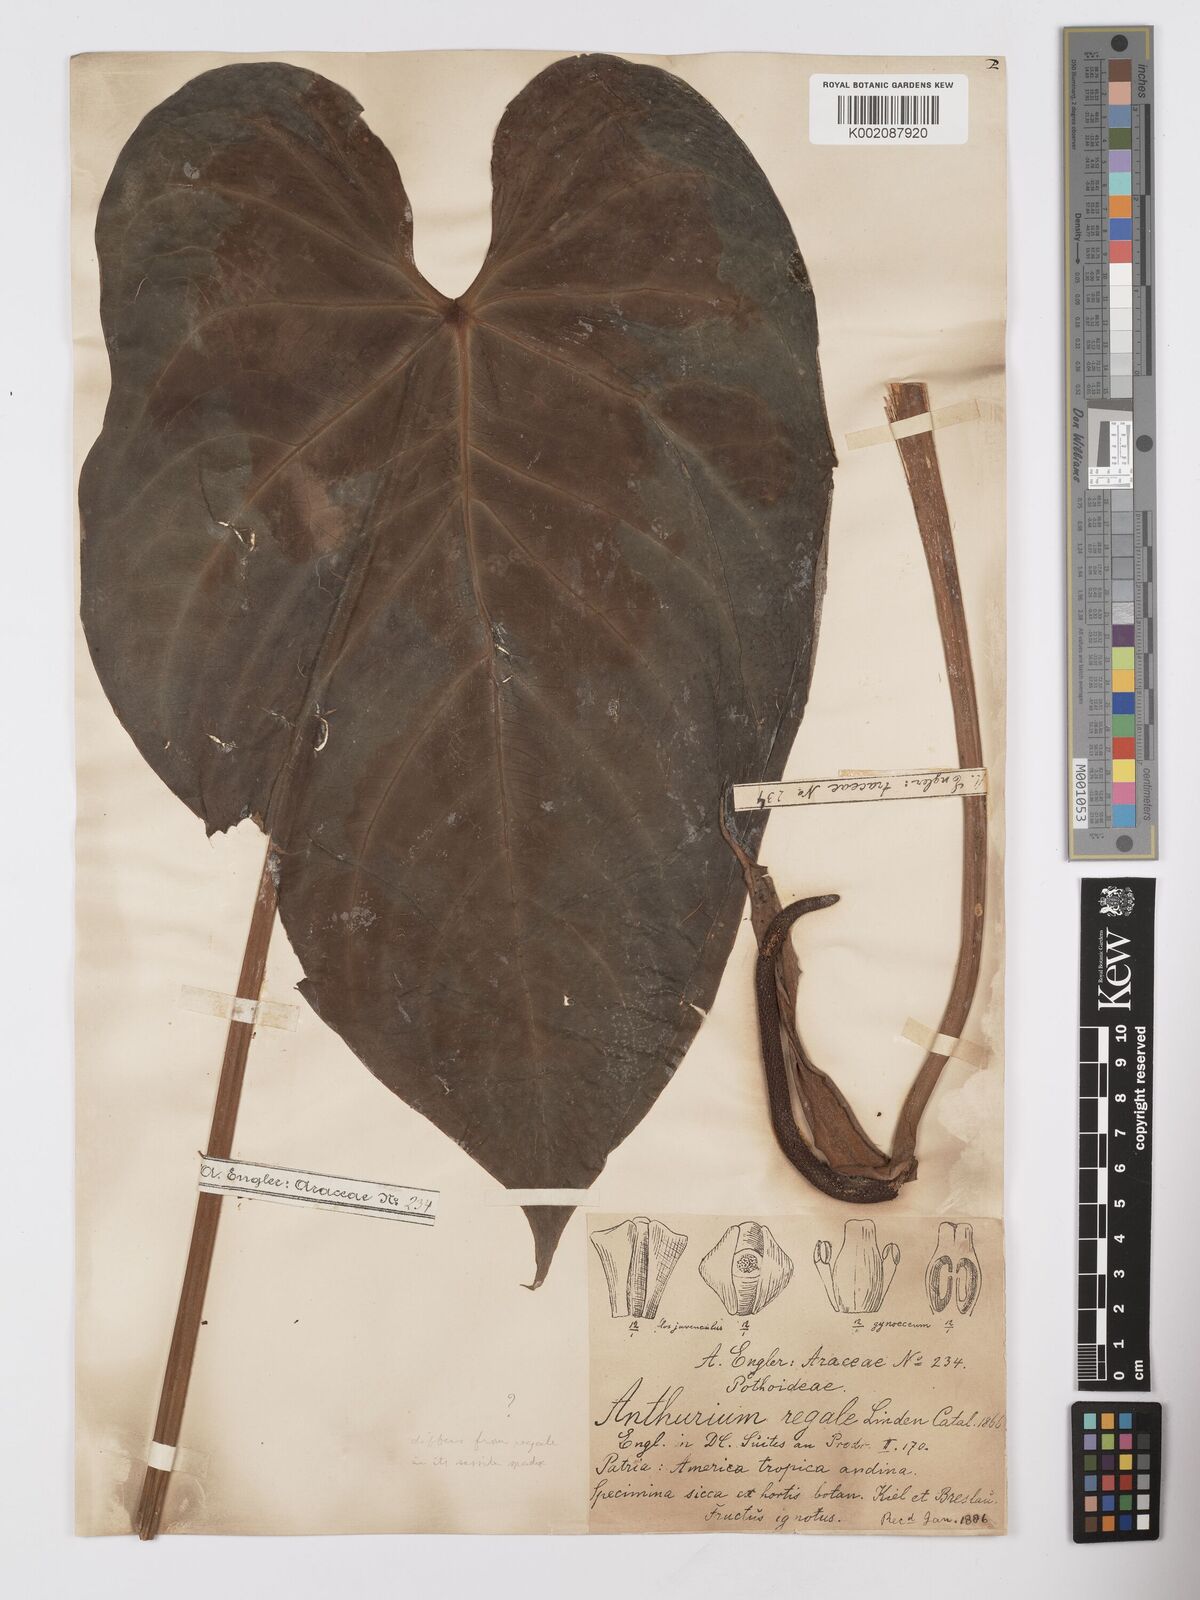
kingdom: Plantae
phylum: Tracheophyta
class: Liliopsida
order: Alismatales
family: Araceae
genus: Anthurium
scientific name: Anthurium regale
